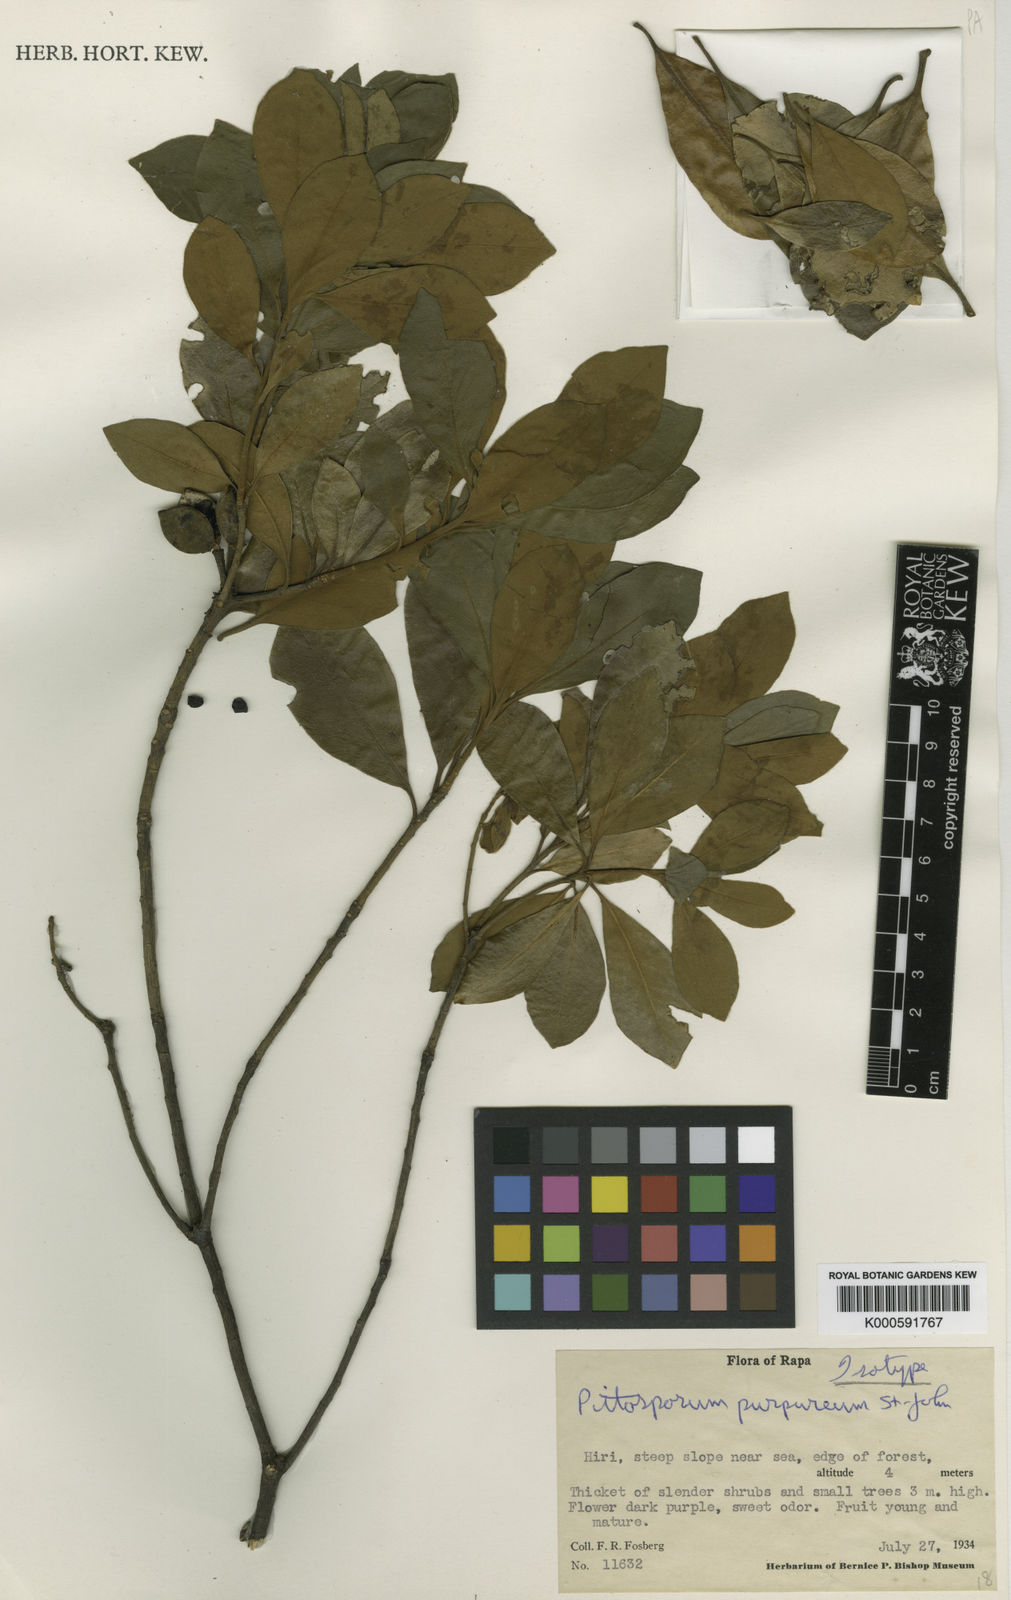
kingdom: Plantae
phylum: Tracheophyta
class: Magnoliopsida
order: Apiales
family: Pittosporaceae
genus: Pittosporum
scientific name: Pittosporum purpureum
